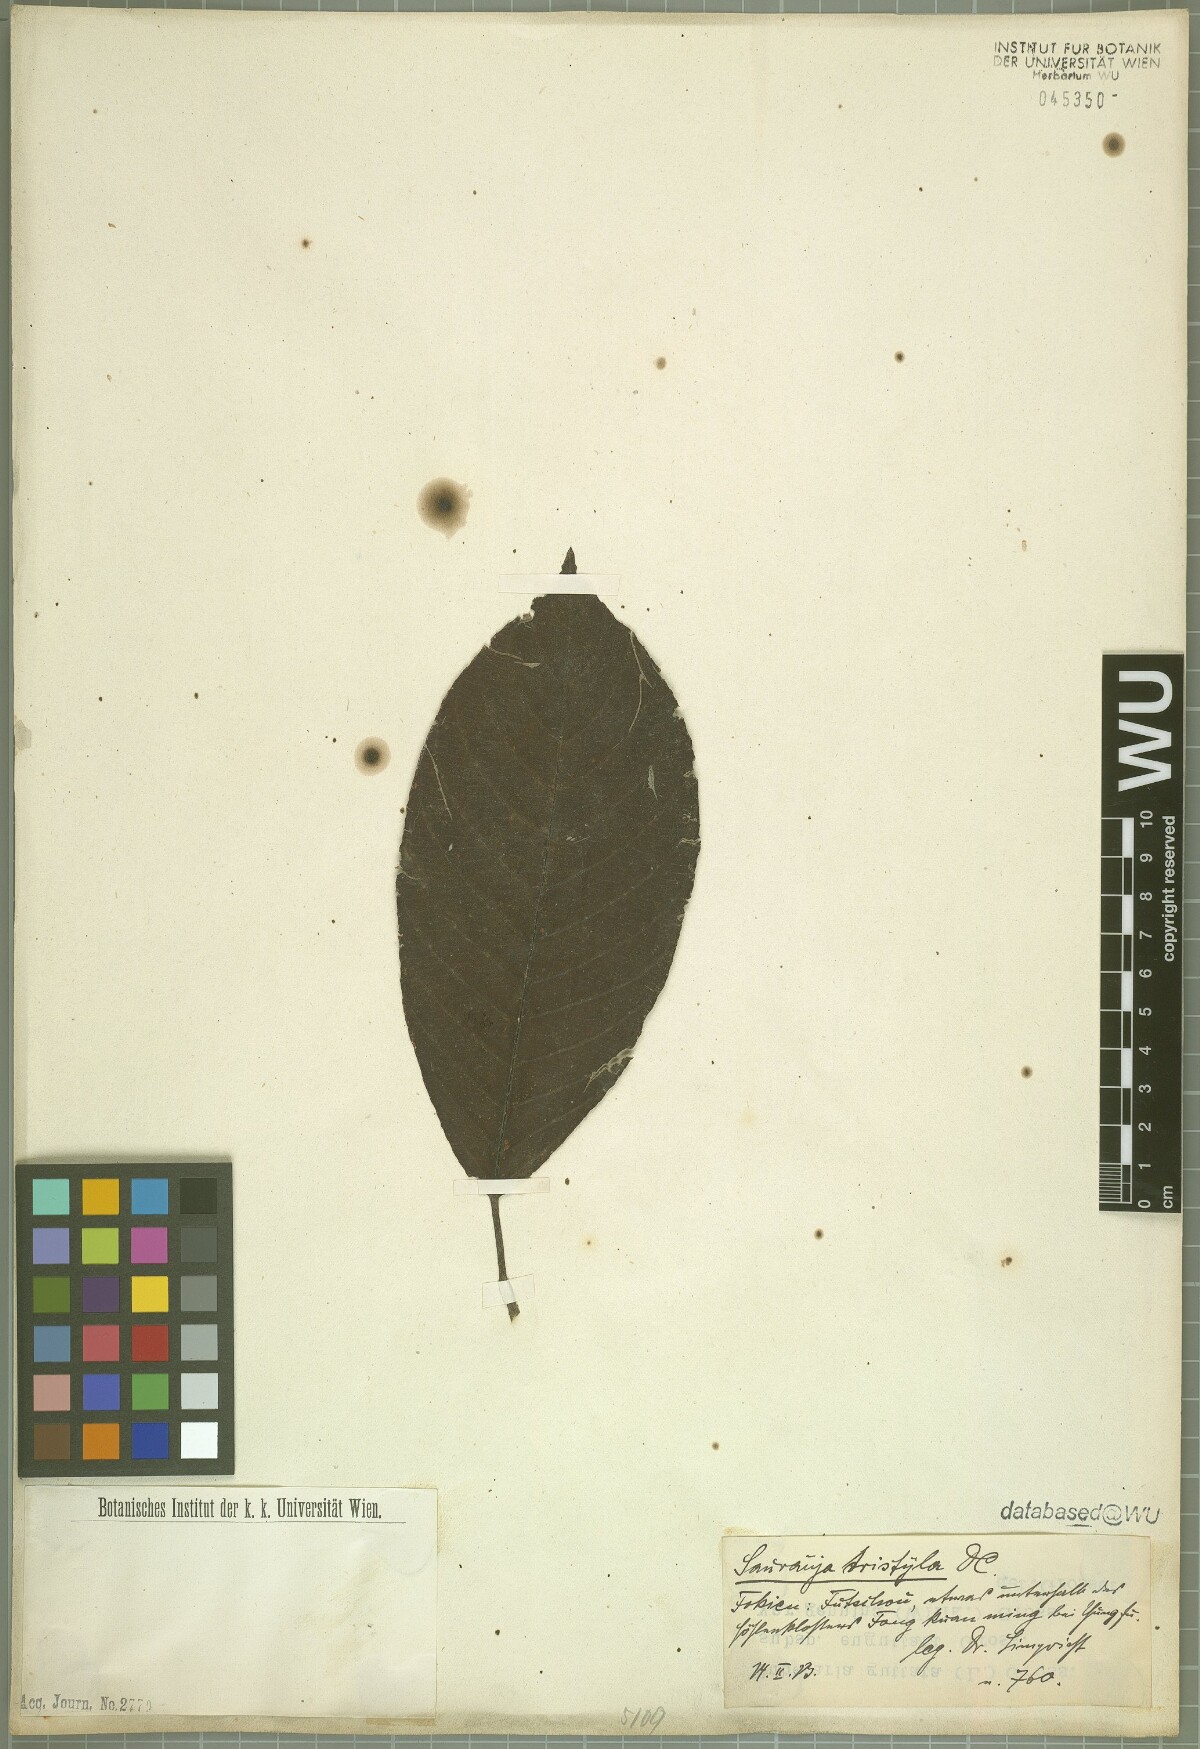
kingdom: Plantae
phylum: Tracheophyta
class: Magnoliopsida
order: Ericales
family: Actinidiaceae
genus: Saurauia
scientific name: Saurauia tristyla
